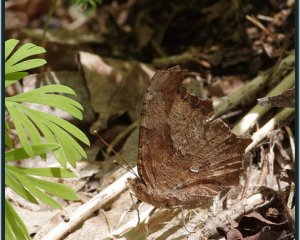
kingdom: Animalia
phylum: Arthropoda
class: Insecta
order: Lepidoptera
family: Nymphalidae
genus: Polygonia
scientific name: Polygonia comma
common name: Eastern Comma
